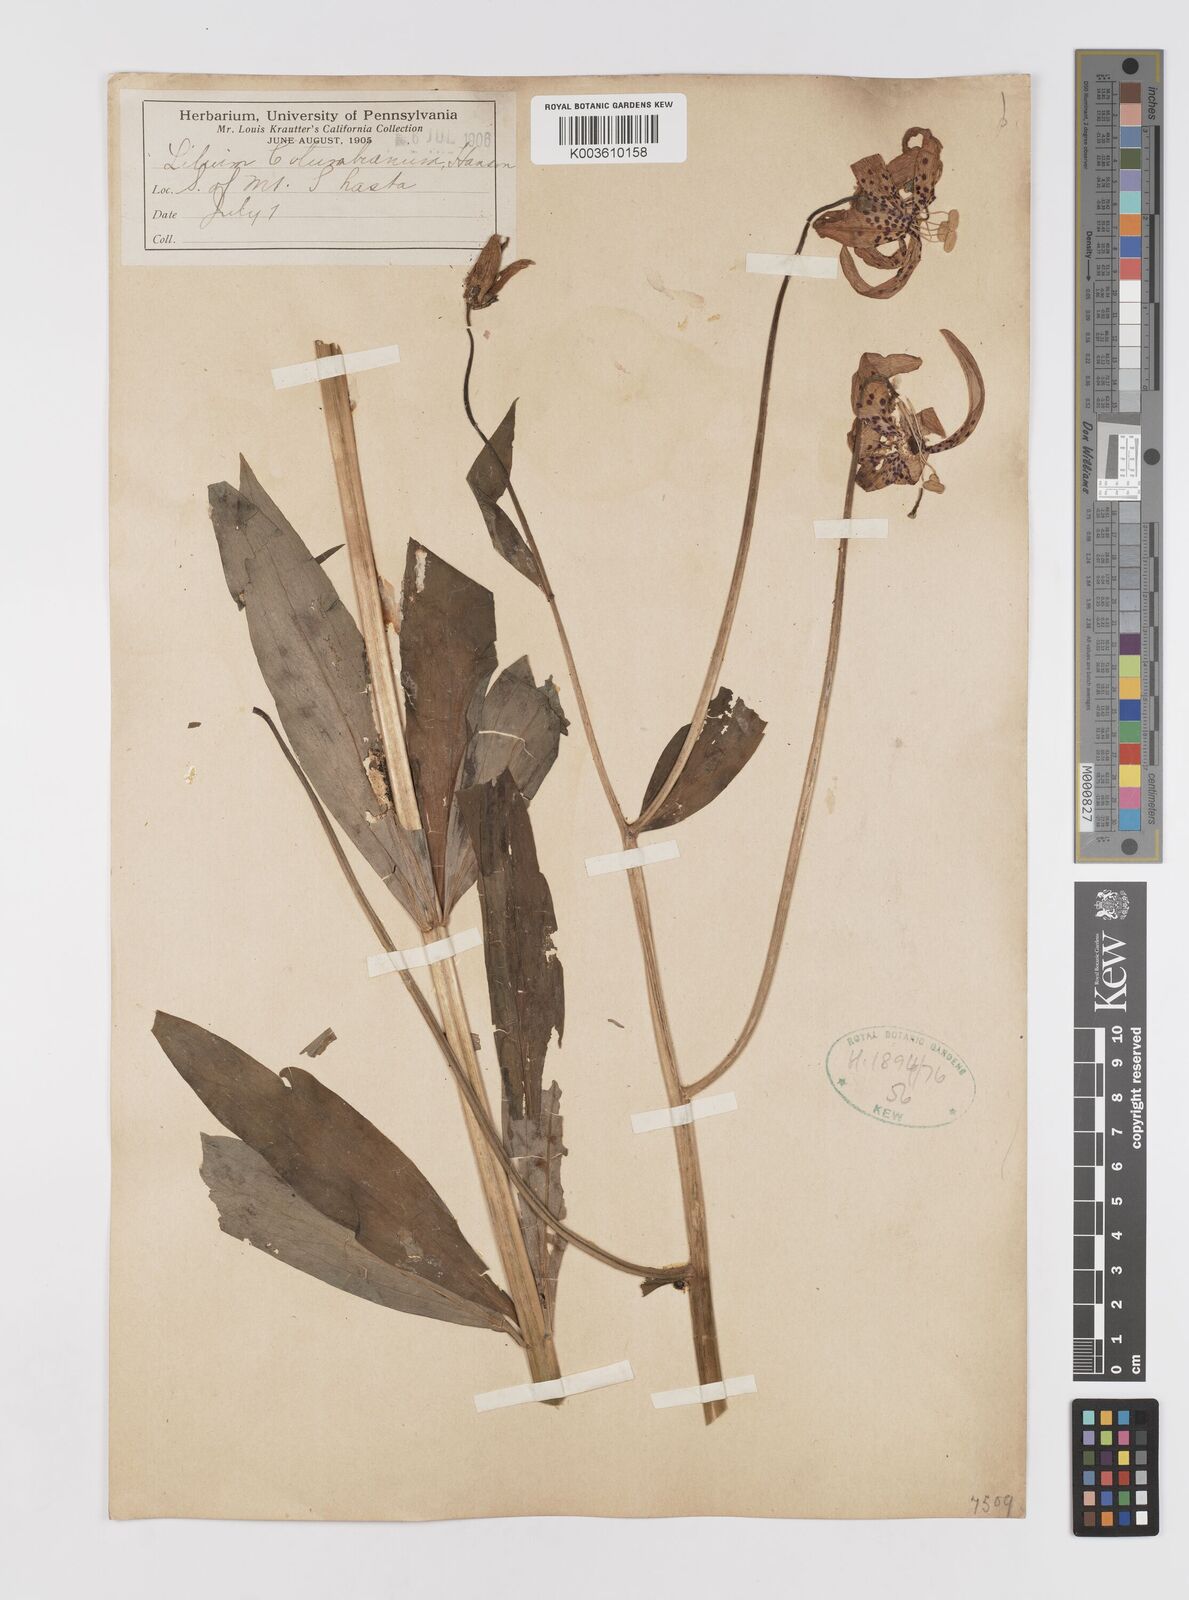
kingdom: Plantae
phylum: Tracheophyta
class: Liliopsida
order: Liliales
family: Liliaceae
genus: Lilium
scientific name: Lilium
